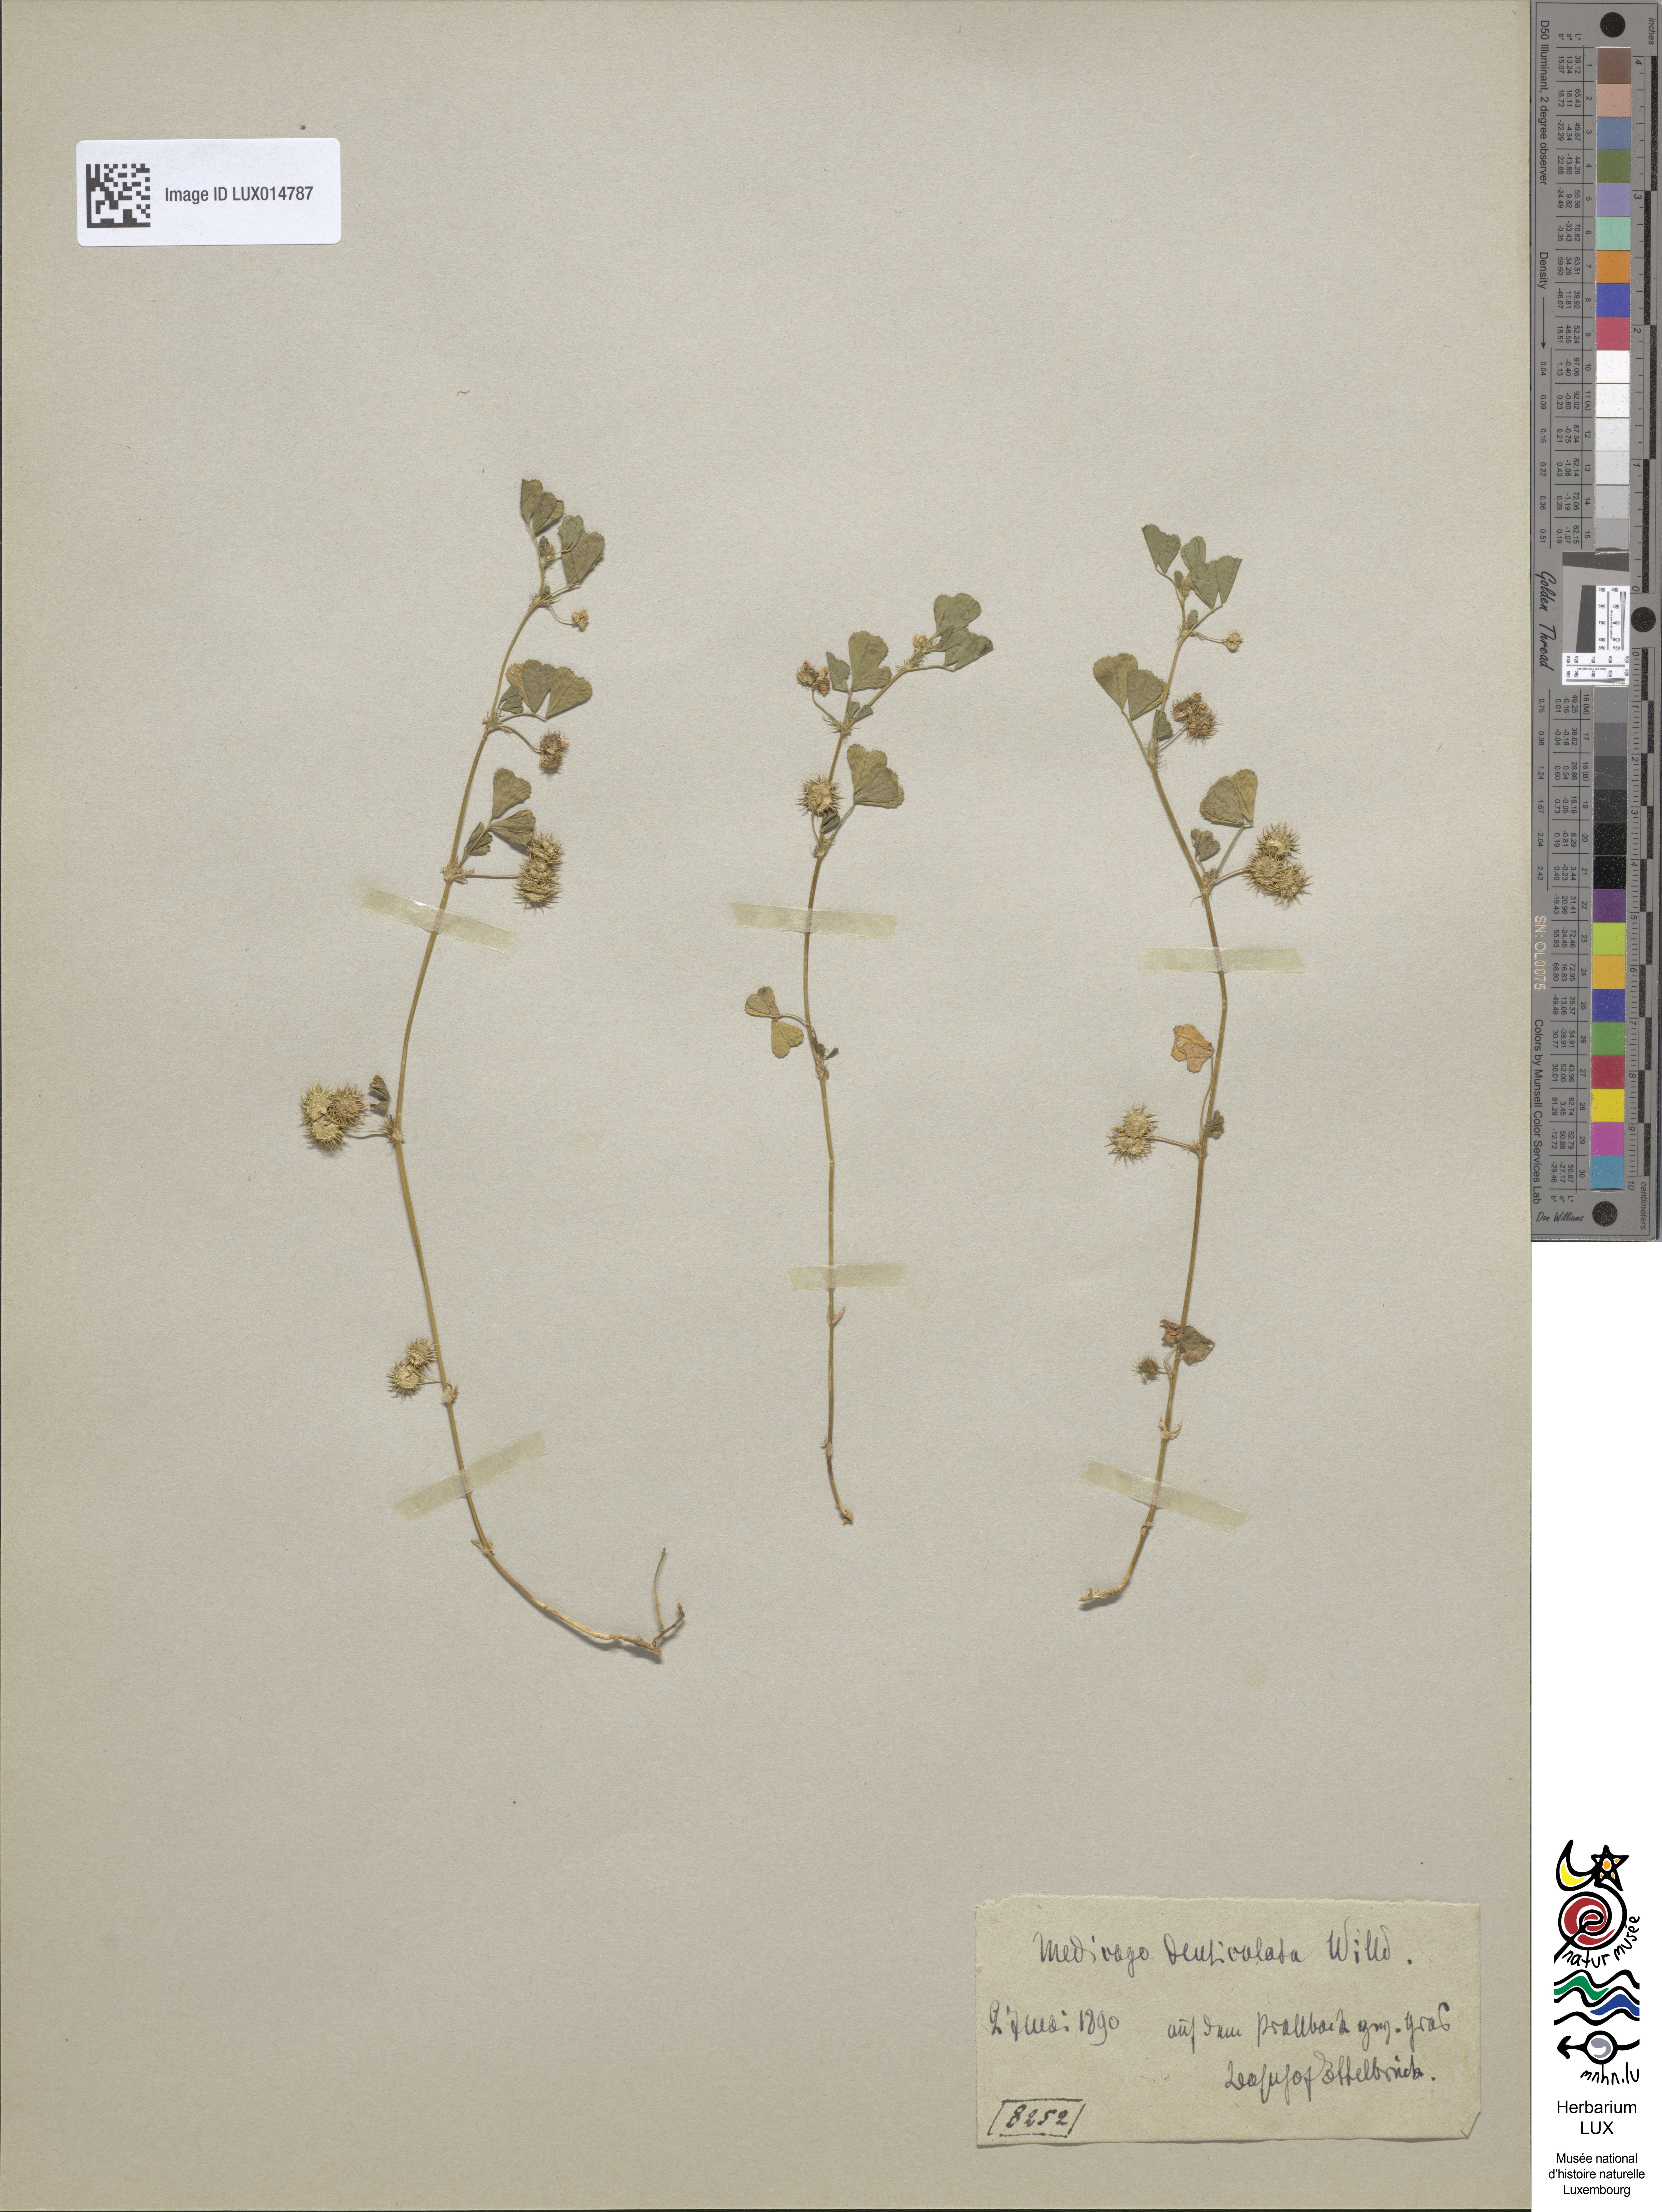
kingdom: Plantae
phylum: Tracheophyta
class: Magnoliopsida
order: Fabales
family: Fabaceae
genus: Medicago
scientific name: Medicago polymorpha
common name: Burclover
